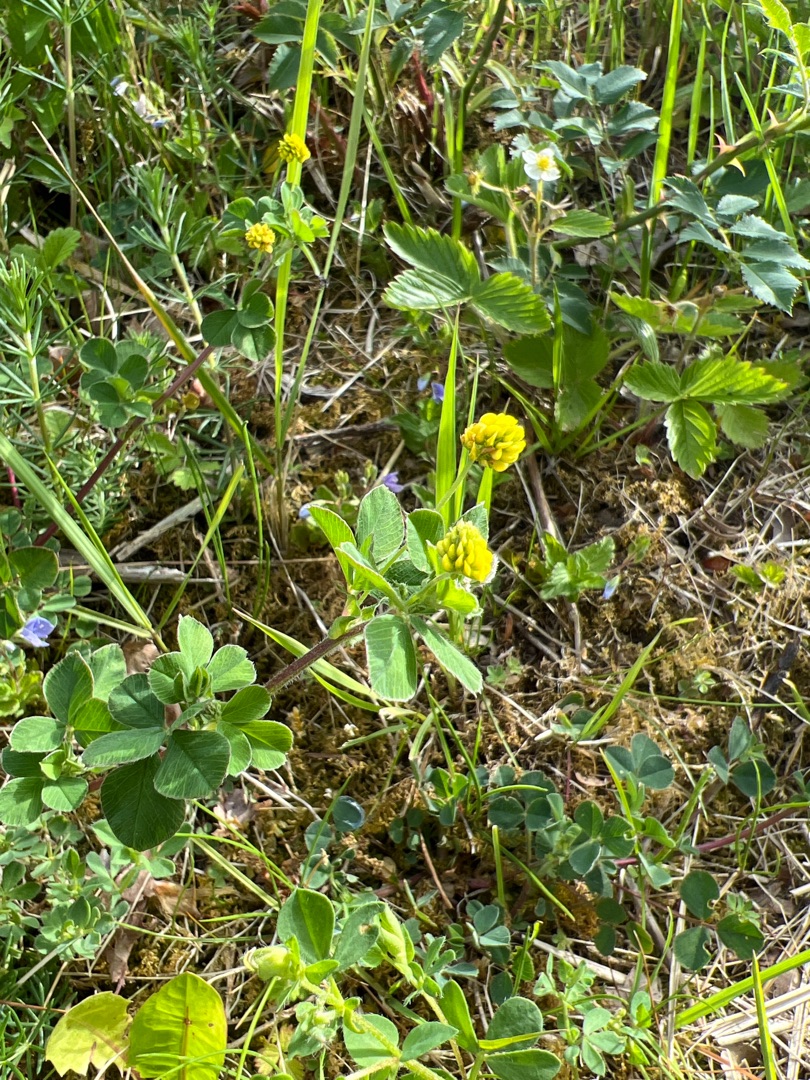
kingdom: Plantae
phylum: Tracheophyta
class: Magnoliopsida
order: Fabales
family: Fabaceae
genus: Medicago
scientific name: Medicago lupulina
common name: Humle-sneglebælg
